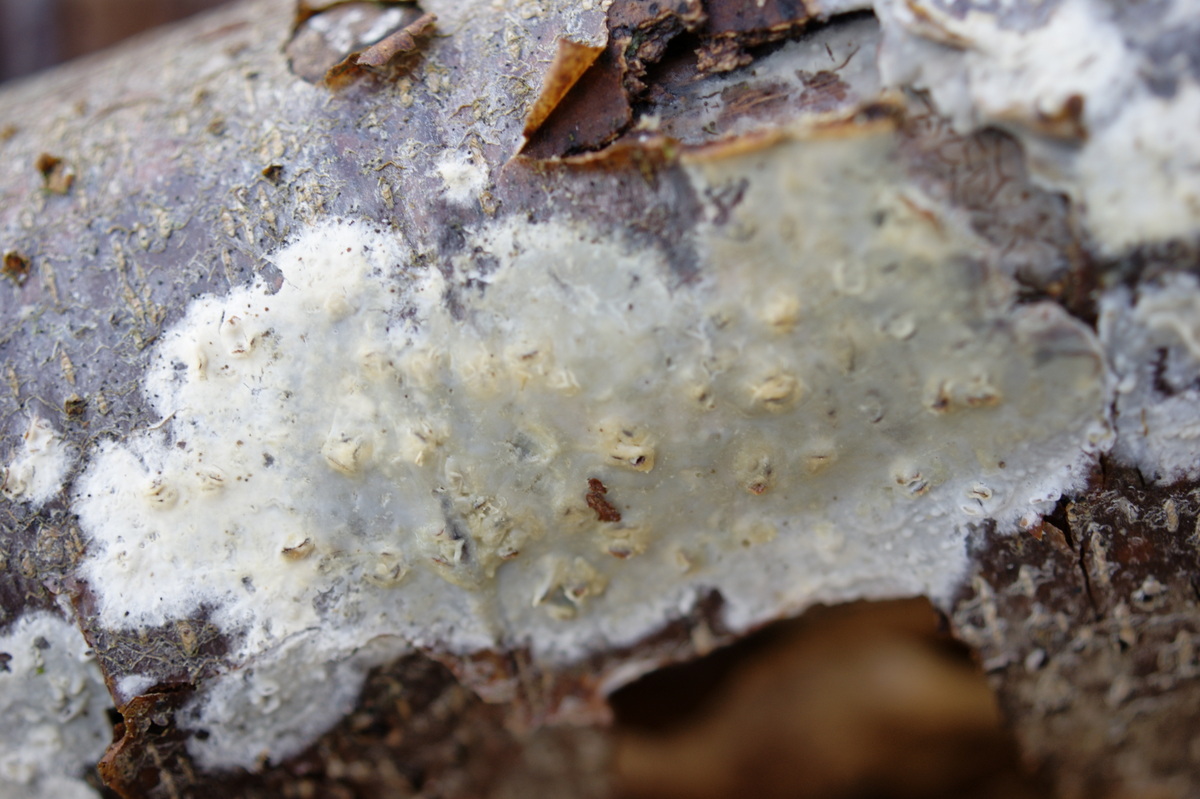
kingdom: Fungi
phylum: Basidiomycota
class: Agaricomycetes
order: Agaricales
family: Radulomycetaceae
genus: Radulomyces
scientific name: Radulomyces confluens
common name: glat naftalinskind
